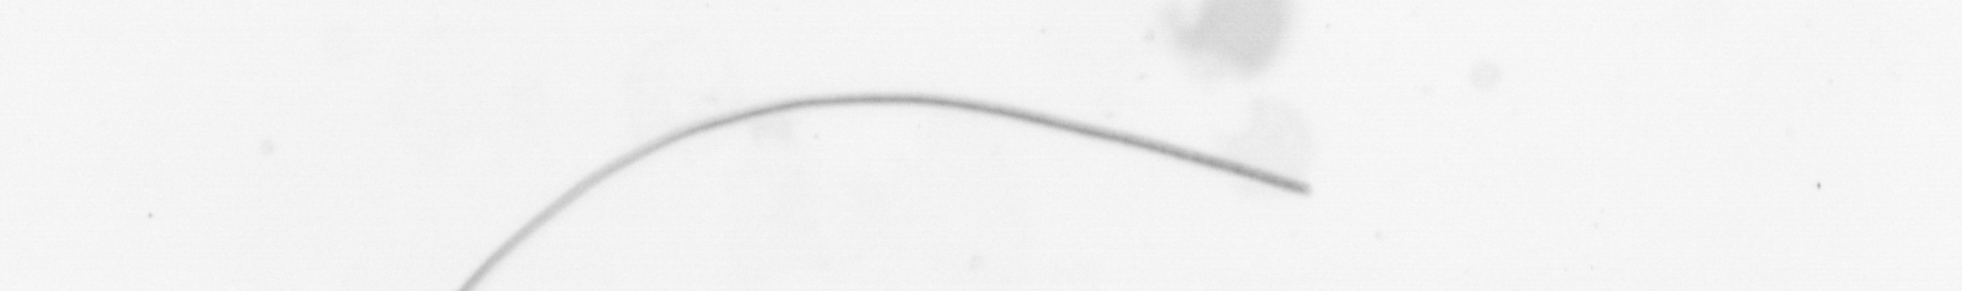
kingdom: Chromista
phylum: Ochrophyta
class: Bacillariophyceae
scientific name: Bacillariophyceae
